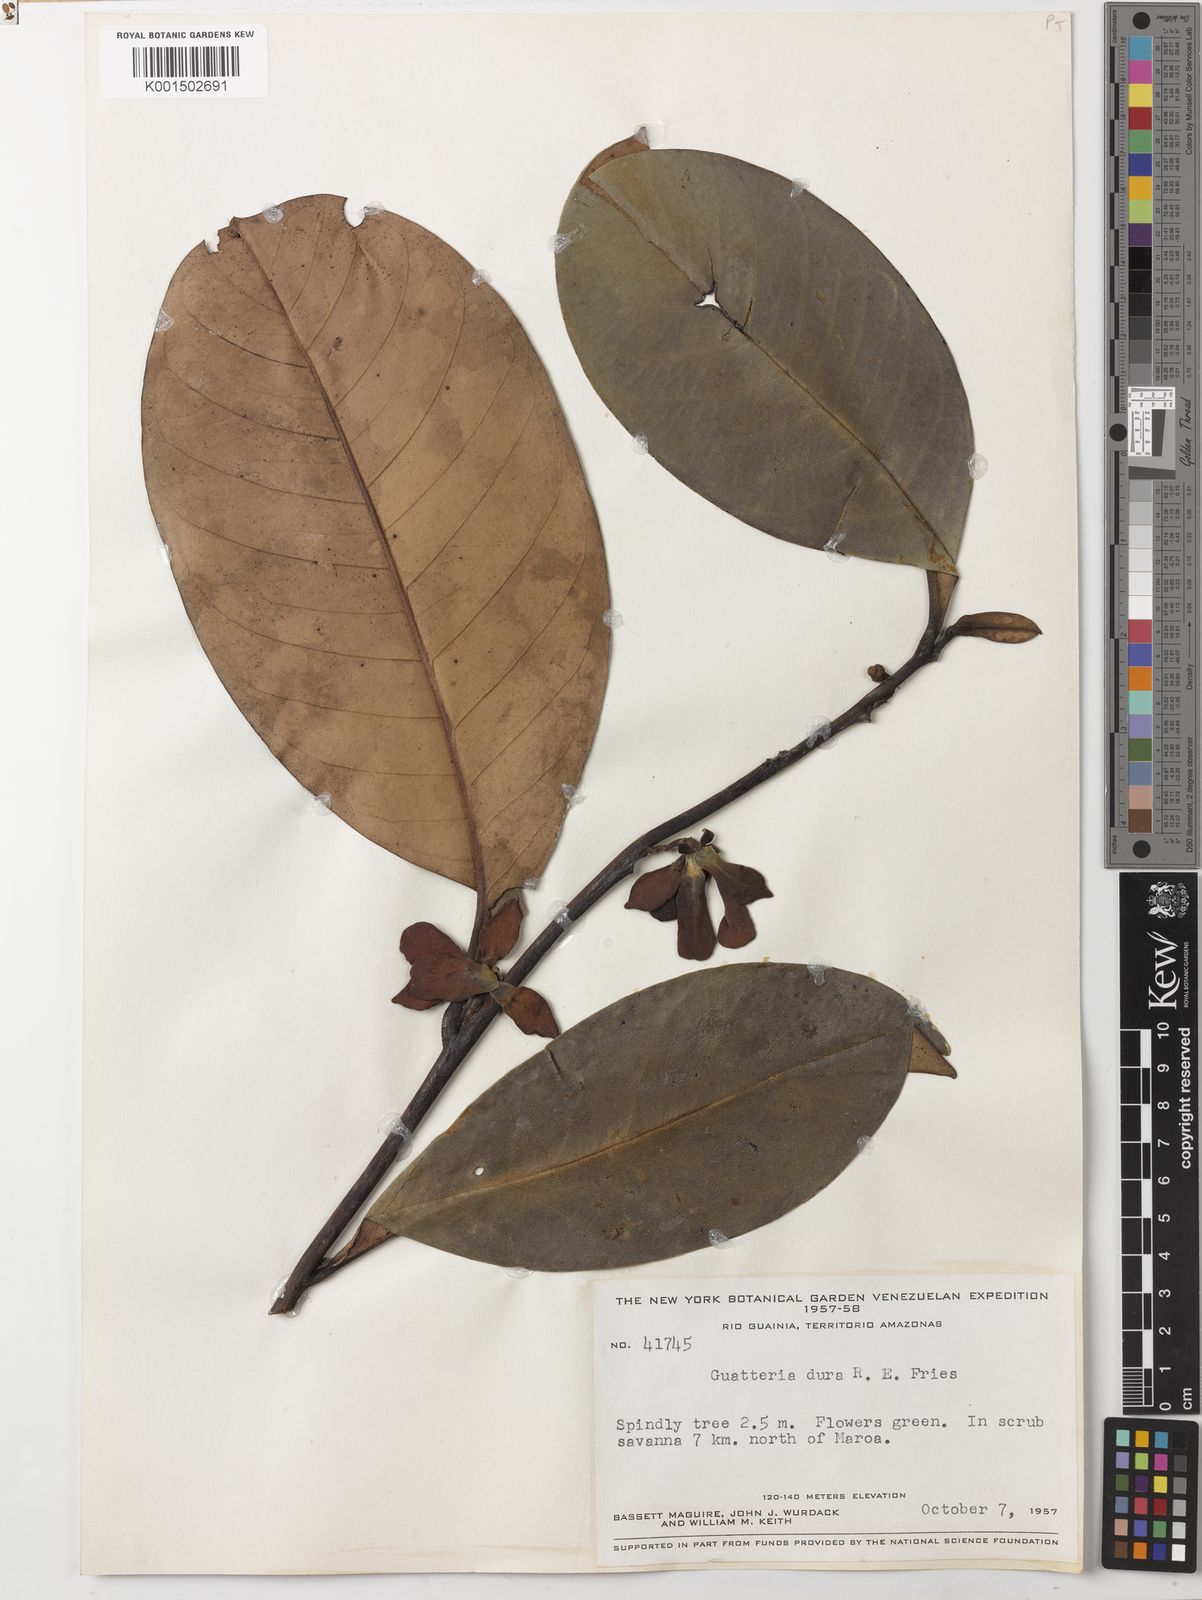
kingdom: Plantae
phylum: Tracheophyta
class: Magnoliopsida
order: Magnoliales
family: Annonaceae
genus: Guatteria
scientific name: Guatteria dura
